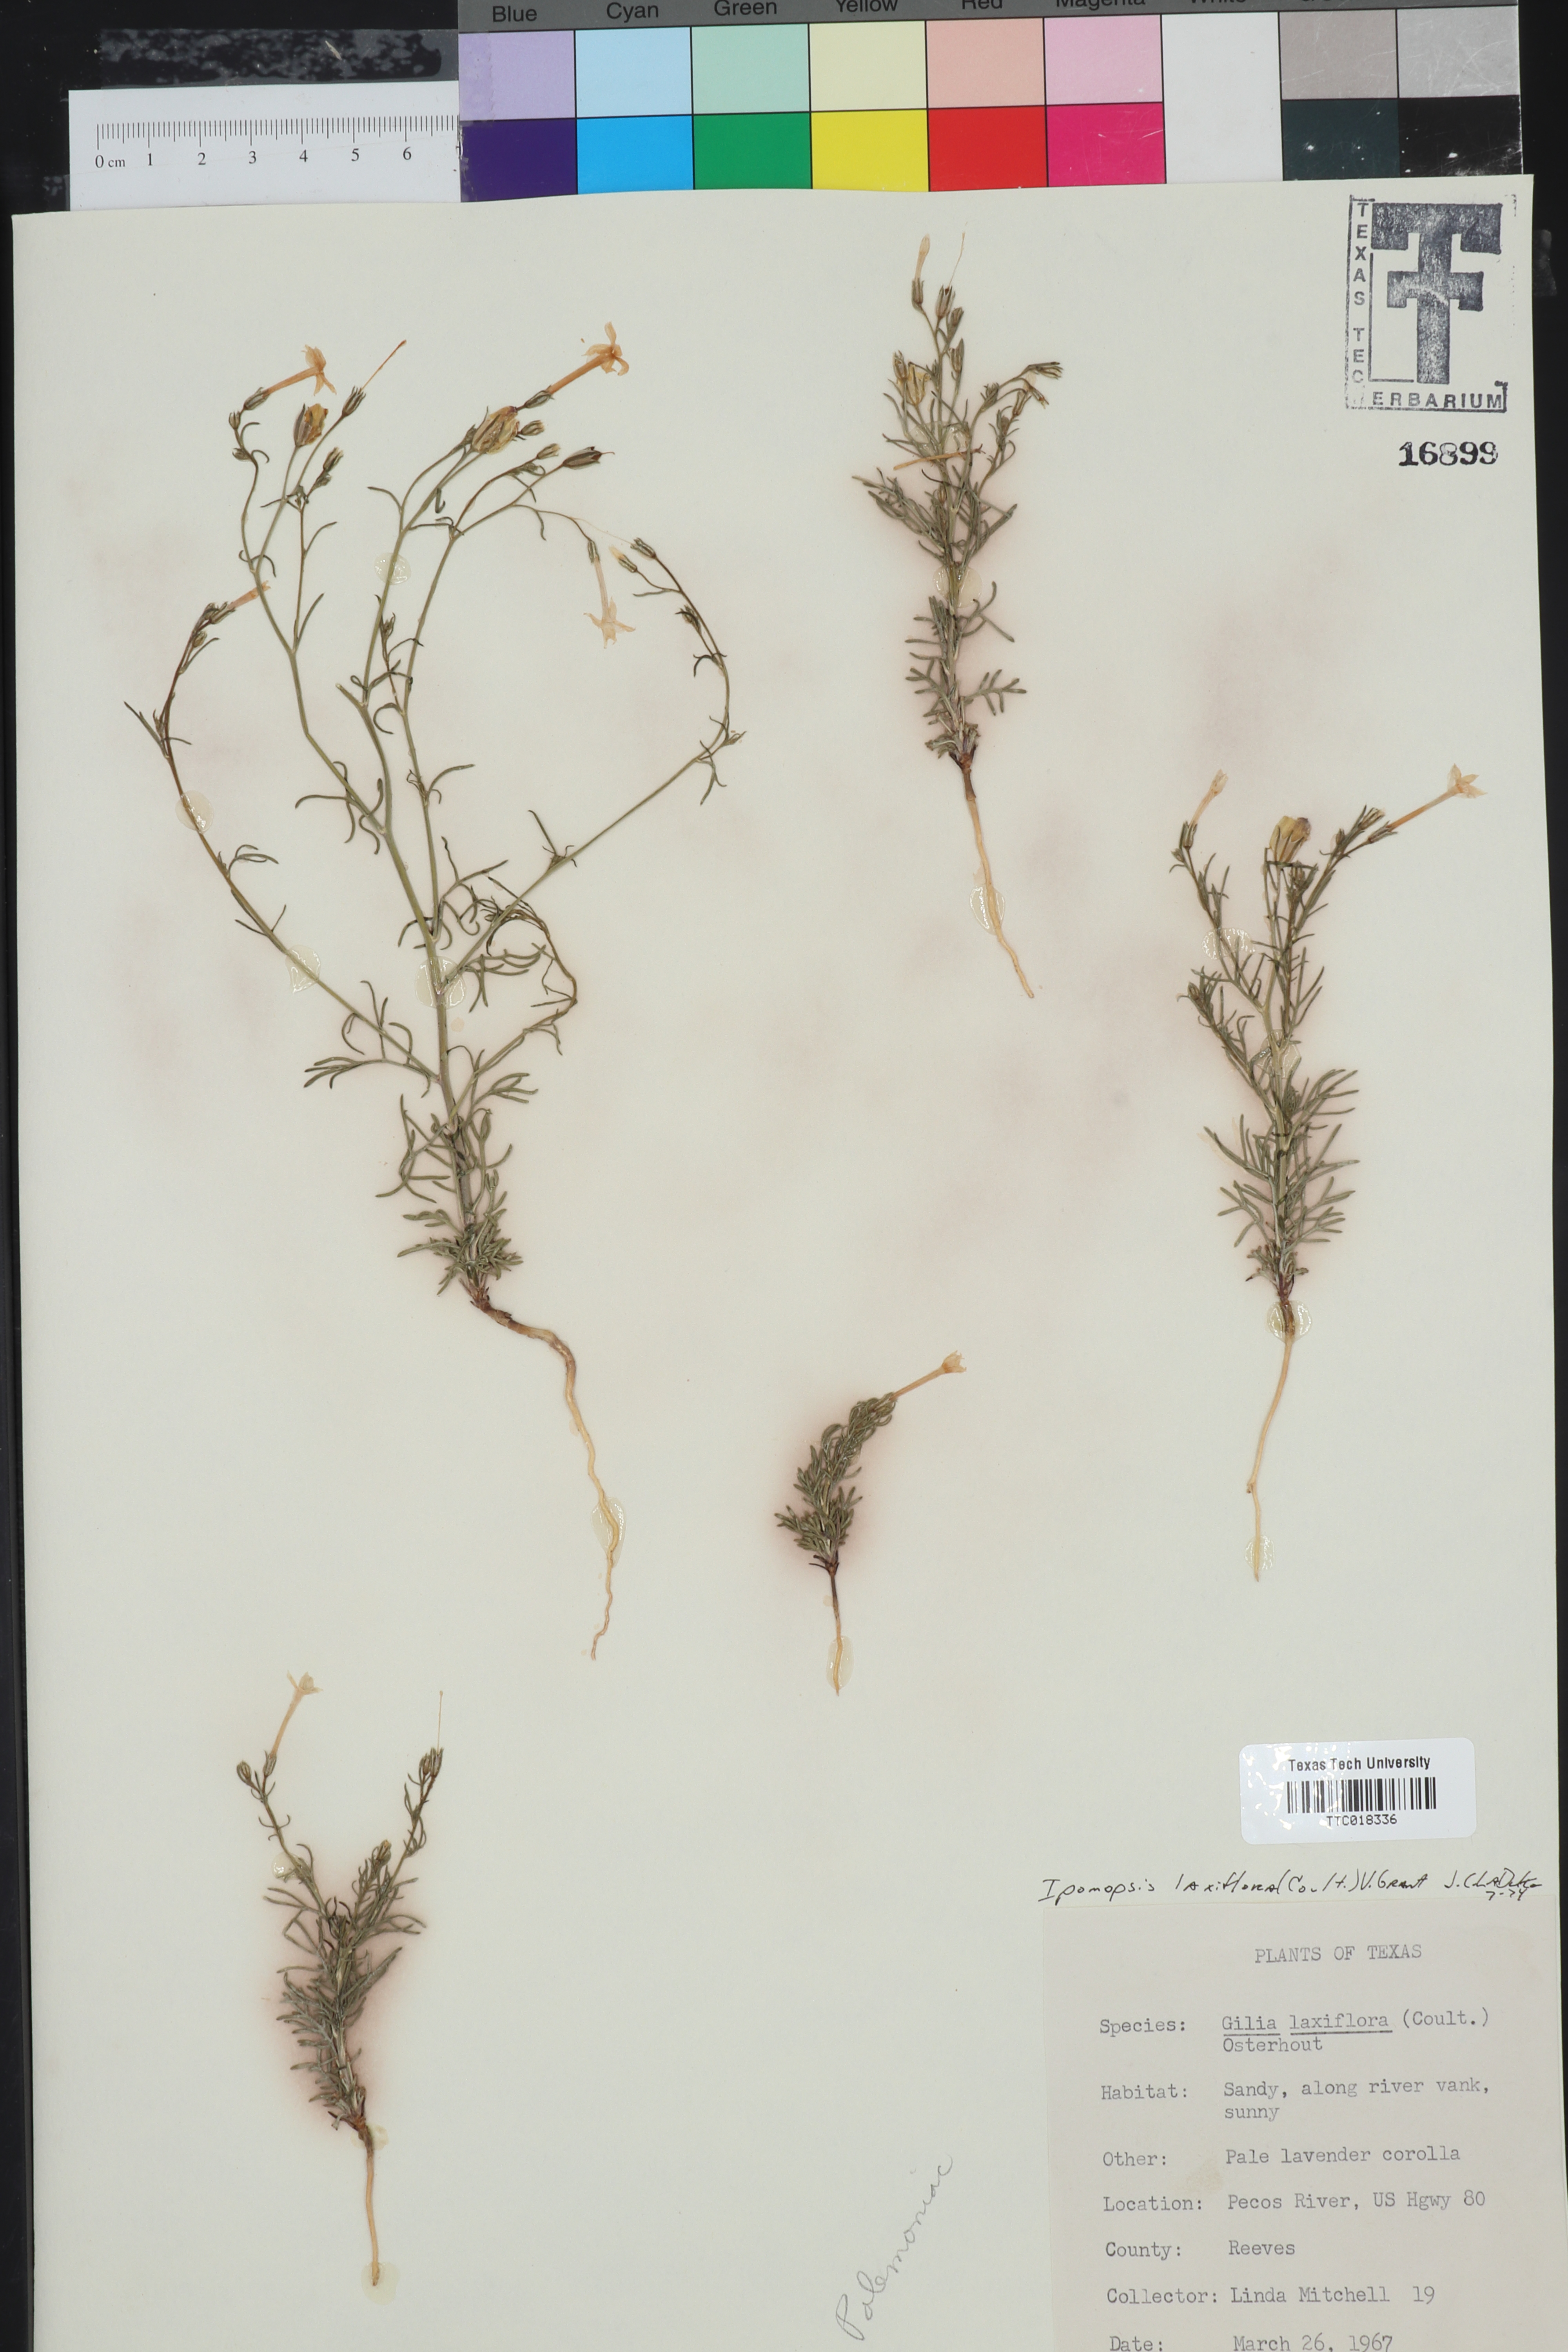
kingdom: Plantae
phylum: Tracheophyta
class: Magnoliopsida
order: Ericales
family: Polemoniaceae
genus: Ipomopsis
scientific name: Ipomopsis laxiflora
